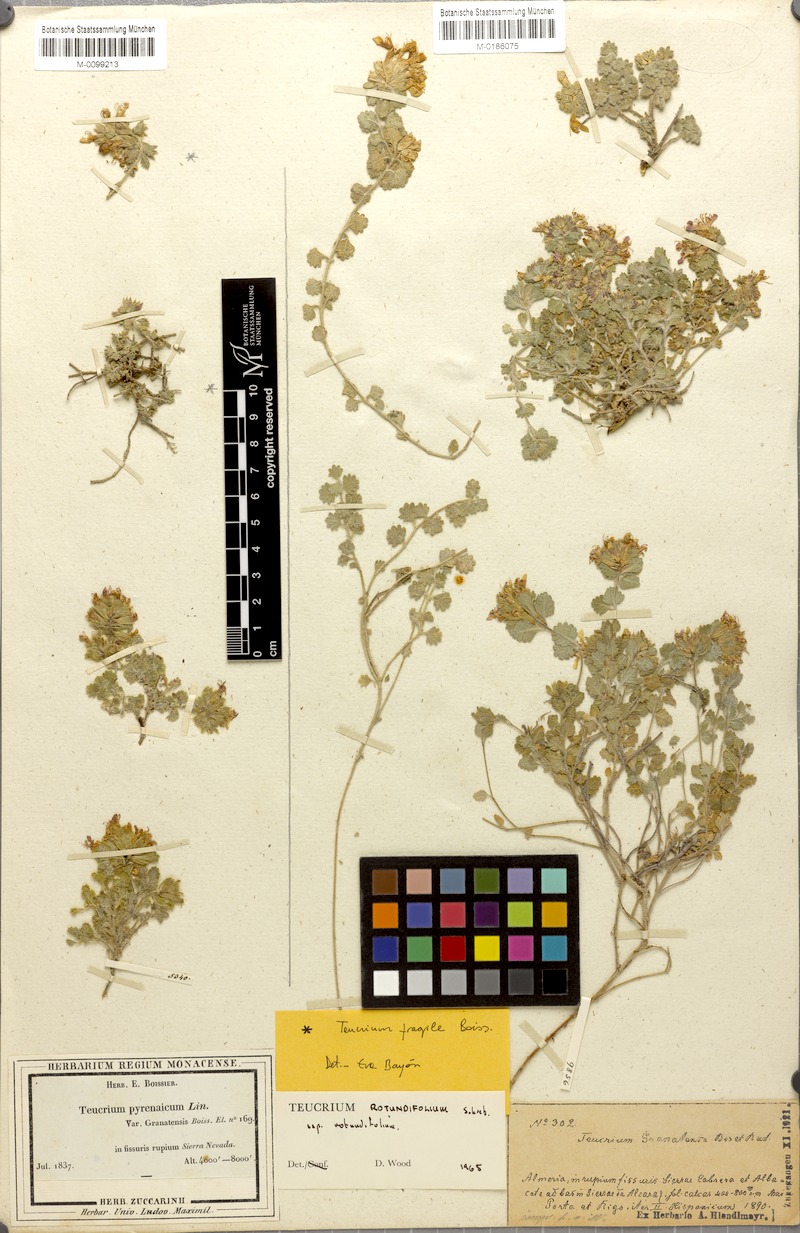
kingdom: Plantae
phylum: Tracheophyta
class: Magnoliopsida
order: Lamiales
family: Lamiaceae
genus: Teucrium
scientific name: Teucrium rotundifolium
